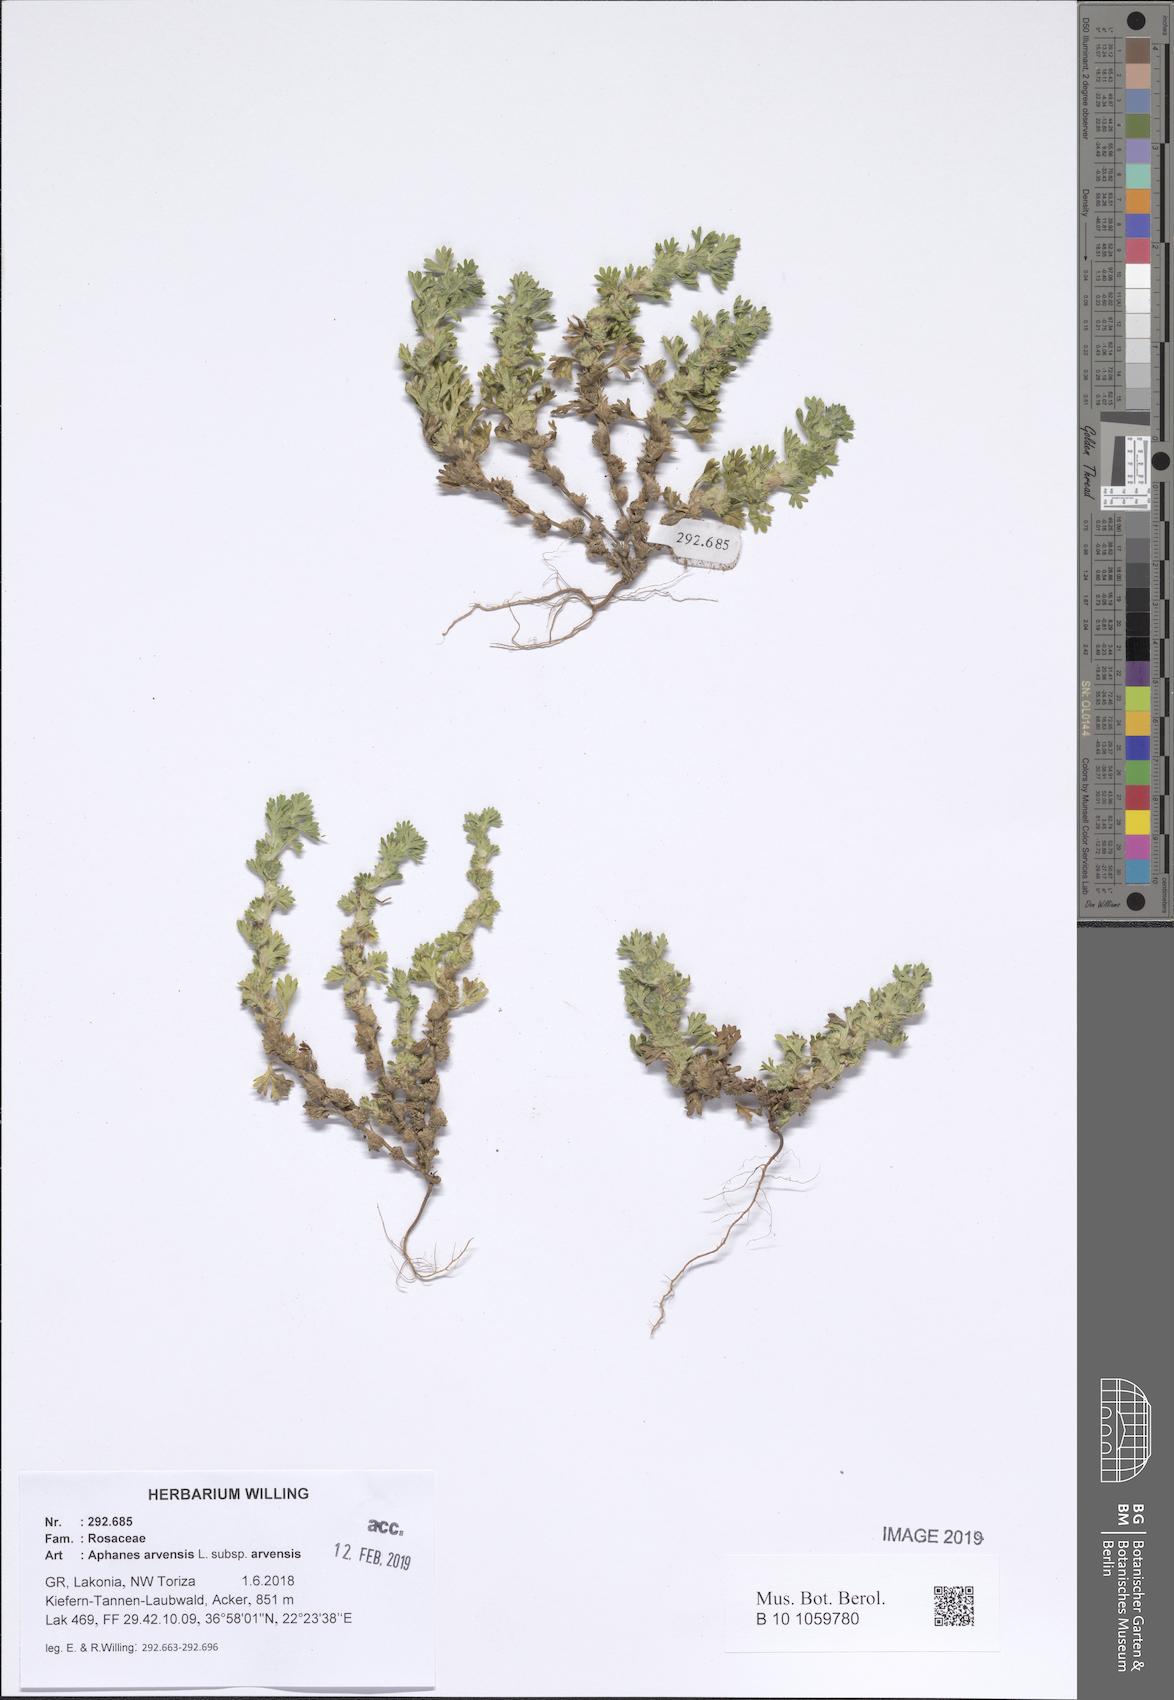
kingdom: Plantae
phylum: Tracheophyta
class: Magnoliopsida
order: Rosales
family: Rosaceae
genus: Aphanes
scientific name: Aphanes arvensis
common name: Parsley-piert
